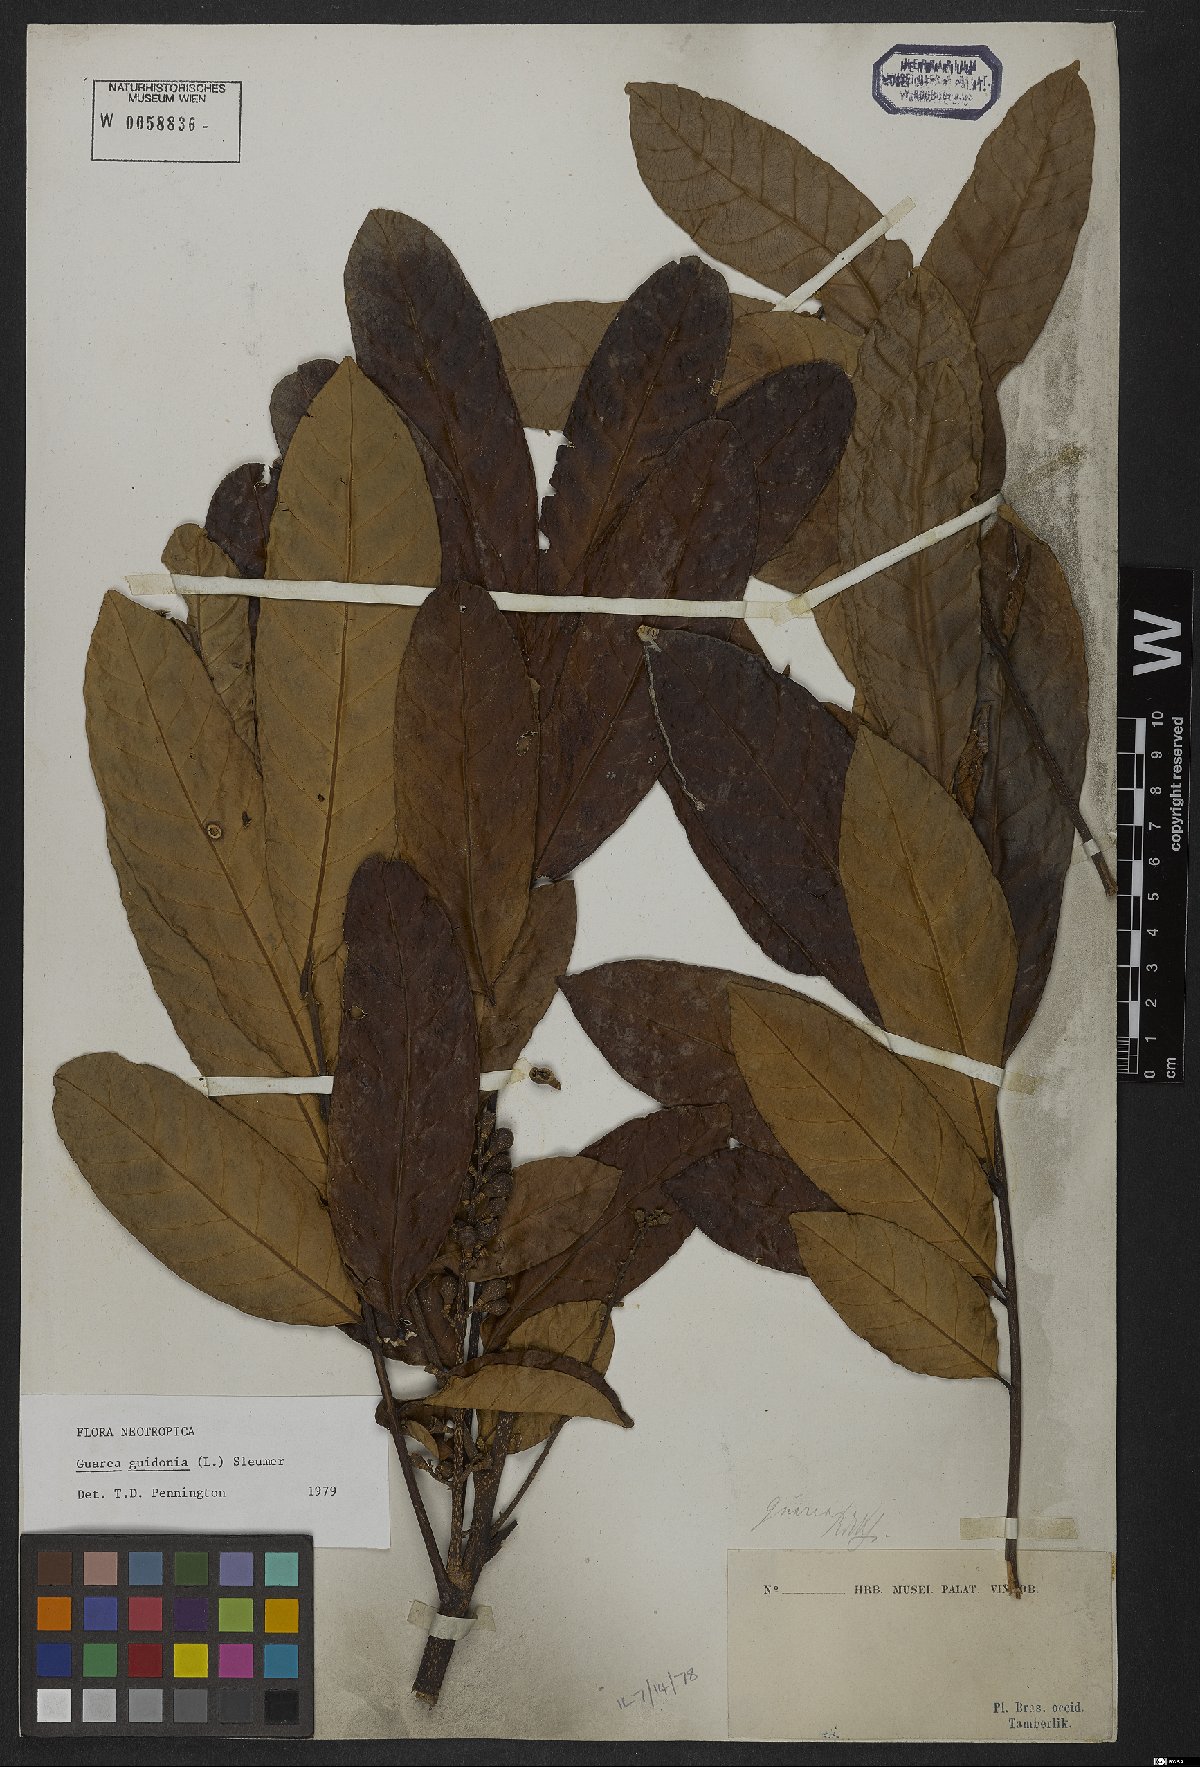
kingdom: Plantae
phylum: Tracheophyta
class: Magnoliopsida
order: Sapindales
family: Meliaceae
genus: Guarea
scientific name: Guarea guidonia
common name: American muskwood
